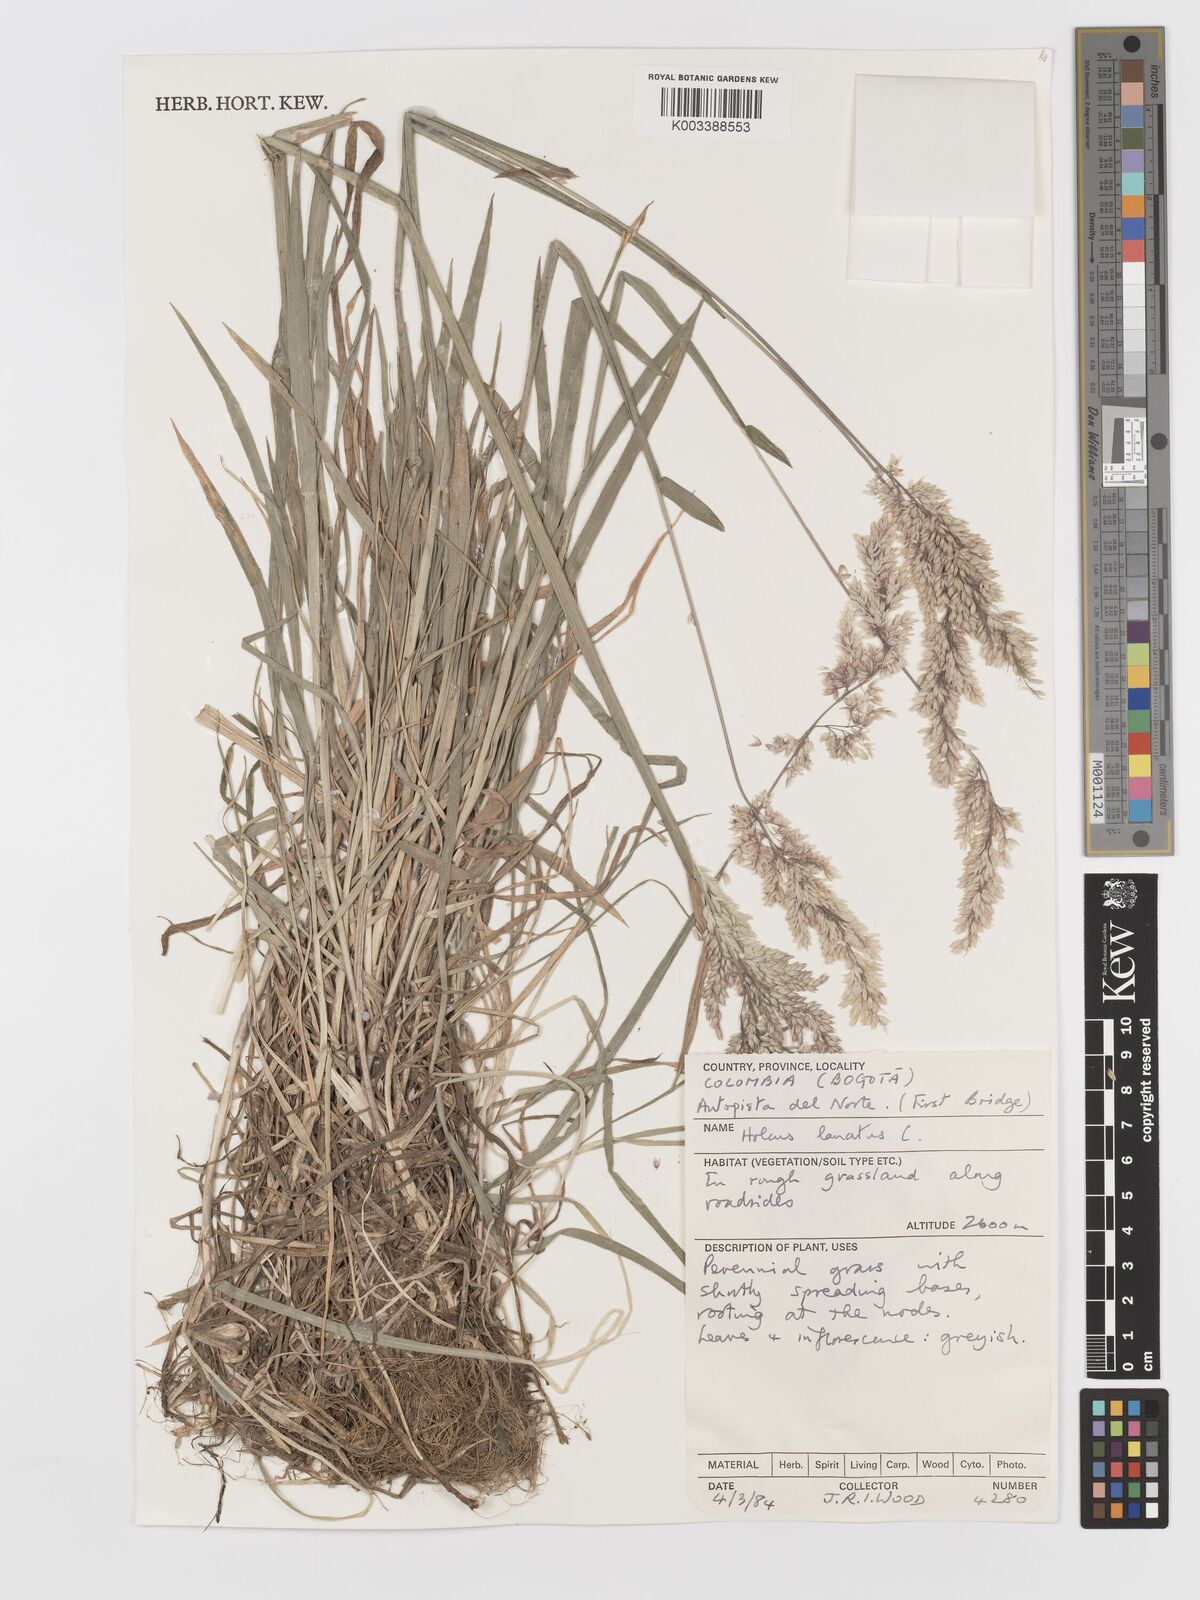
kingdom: Plantae
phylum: Tracheophyta
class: Liliopsida
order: Poales
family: Poaceae
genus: Holcus
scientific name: Holcus lanatus
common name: Yorkshire-fog
